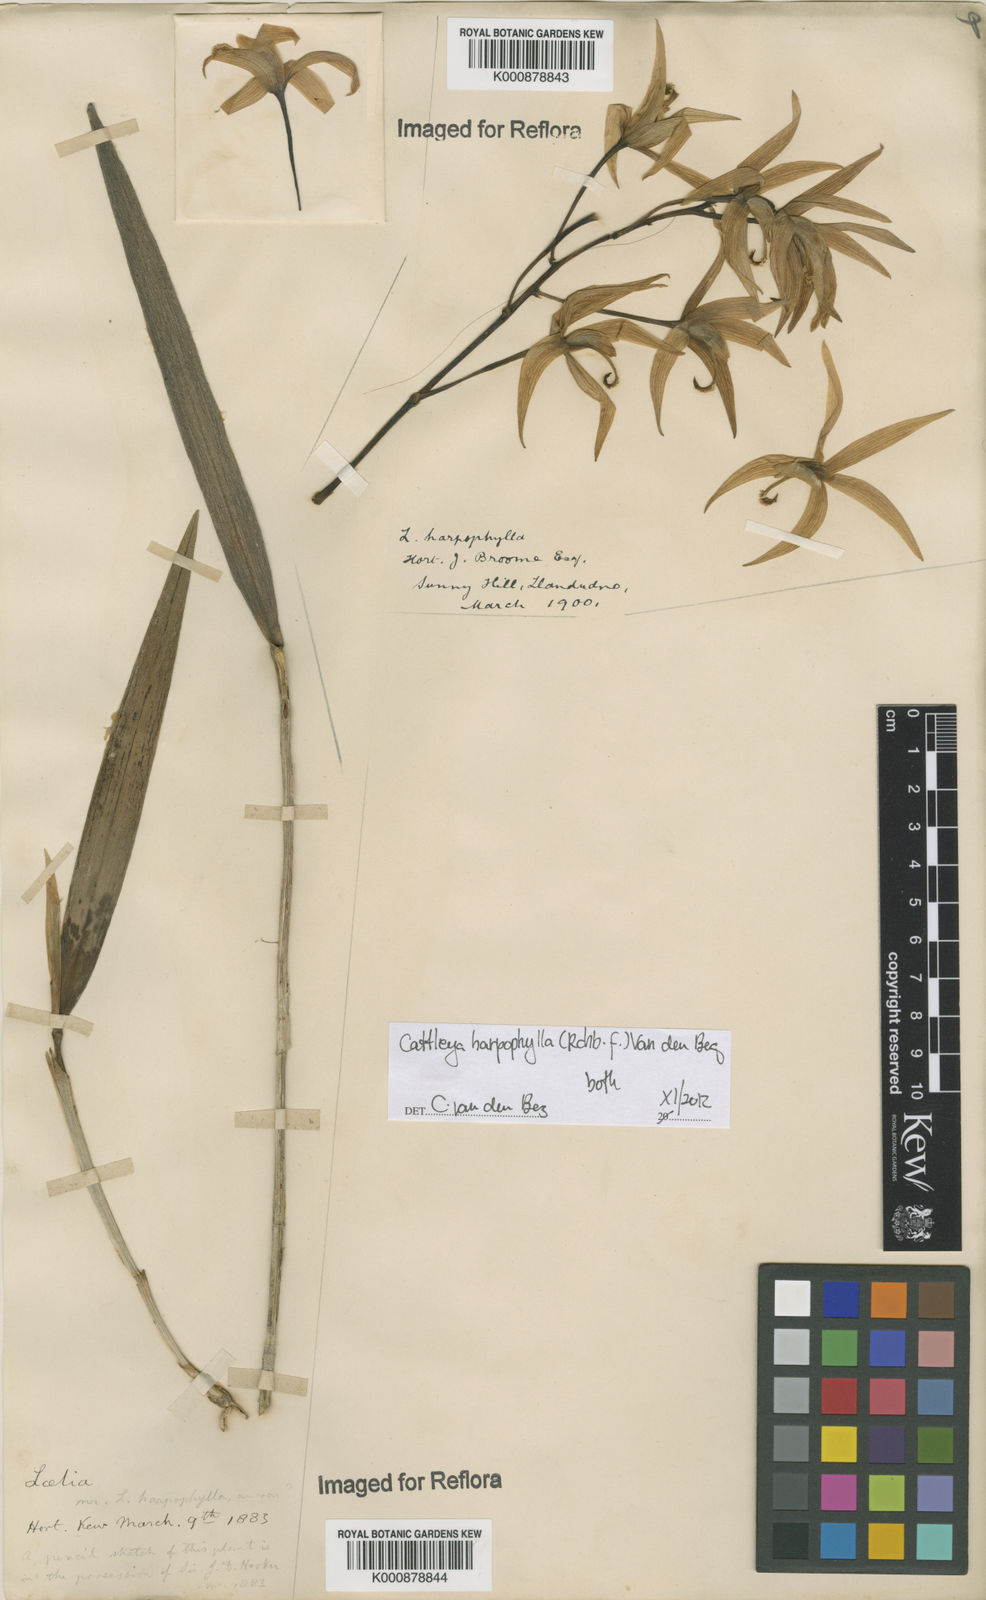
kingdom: Plantae
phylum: Tracheophyta
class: Liliopsida
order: Asparagales
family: Orchidaceae
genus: Cattleya
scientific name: Cattleya harpophylla
